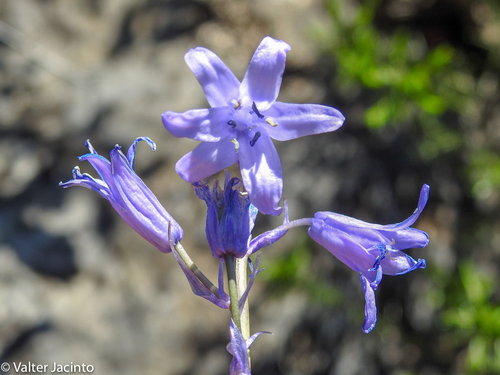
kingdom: Plantae
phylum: Tracheophyta
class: Liliopsida
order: Asparagales
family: Asparagaceae
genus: Hyacinthoides
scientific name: Hyacinthoides hispanica
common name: Spanish bluebell
